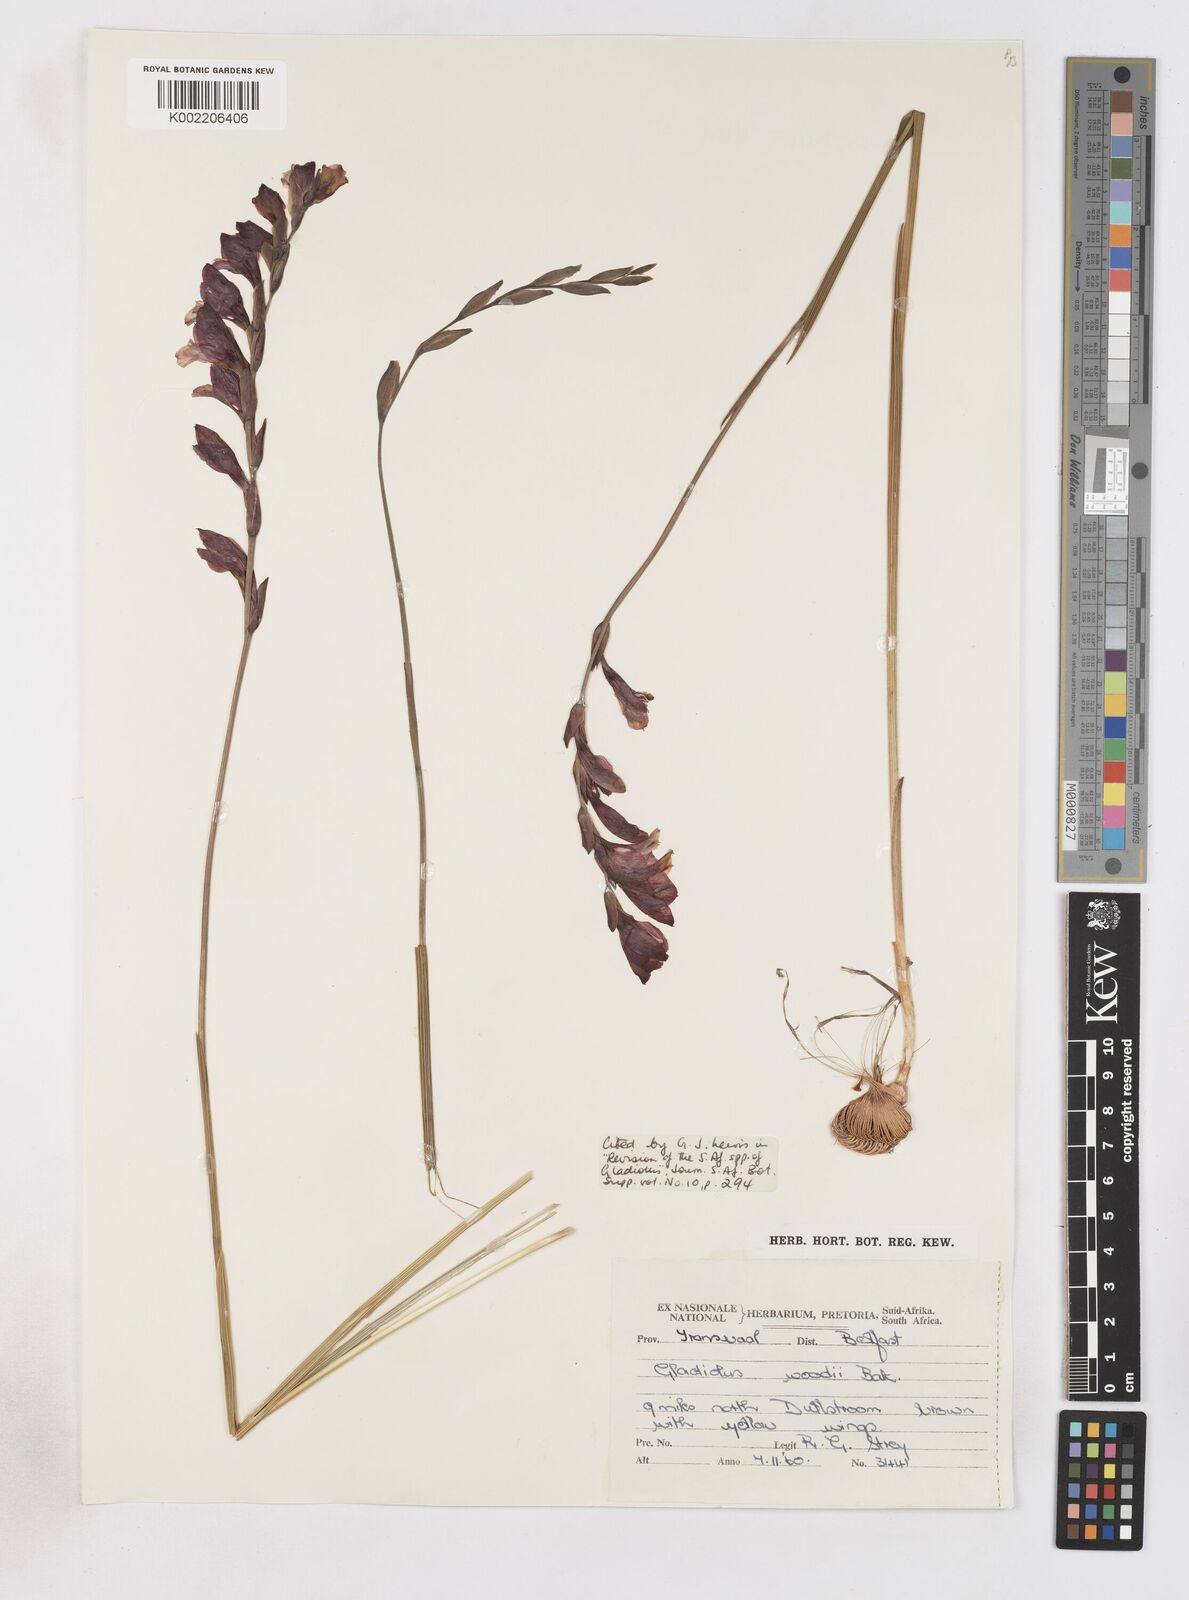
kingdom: Plantae
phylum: Tracheophyta
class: Liliopsida
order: Asparagales
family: Iridaceae
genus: Gladiolus
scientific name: Gladiolus woodii
